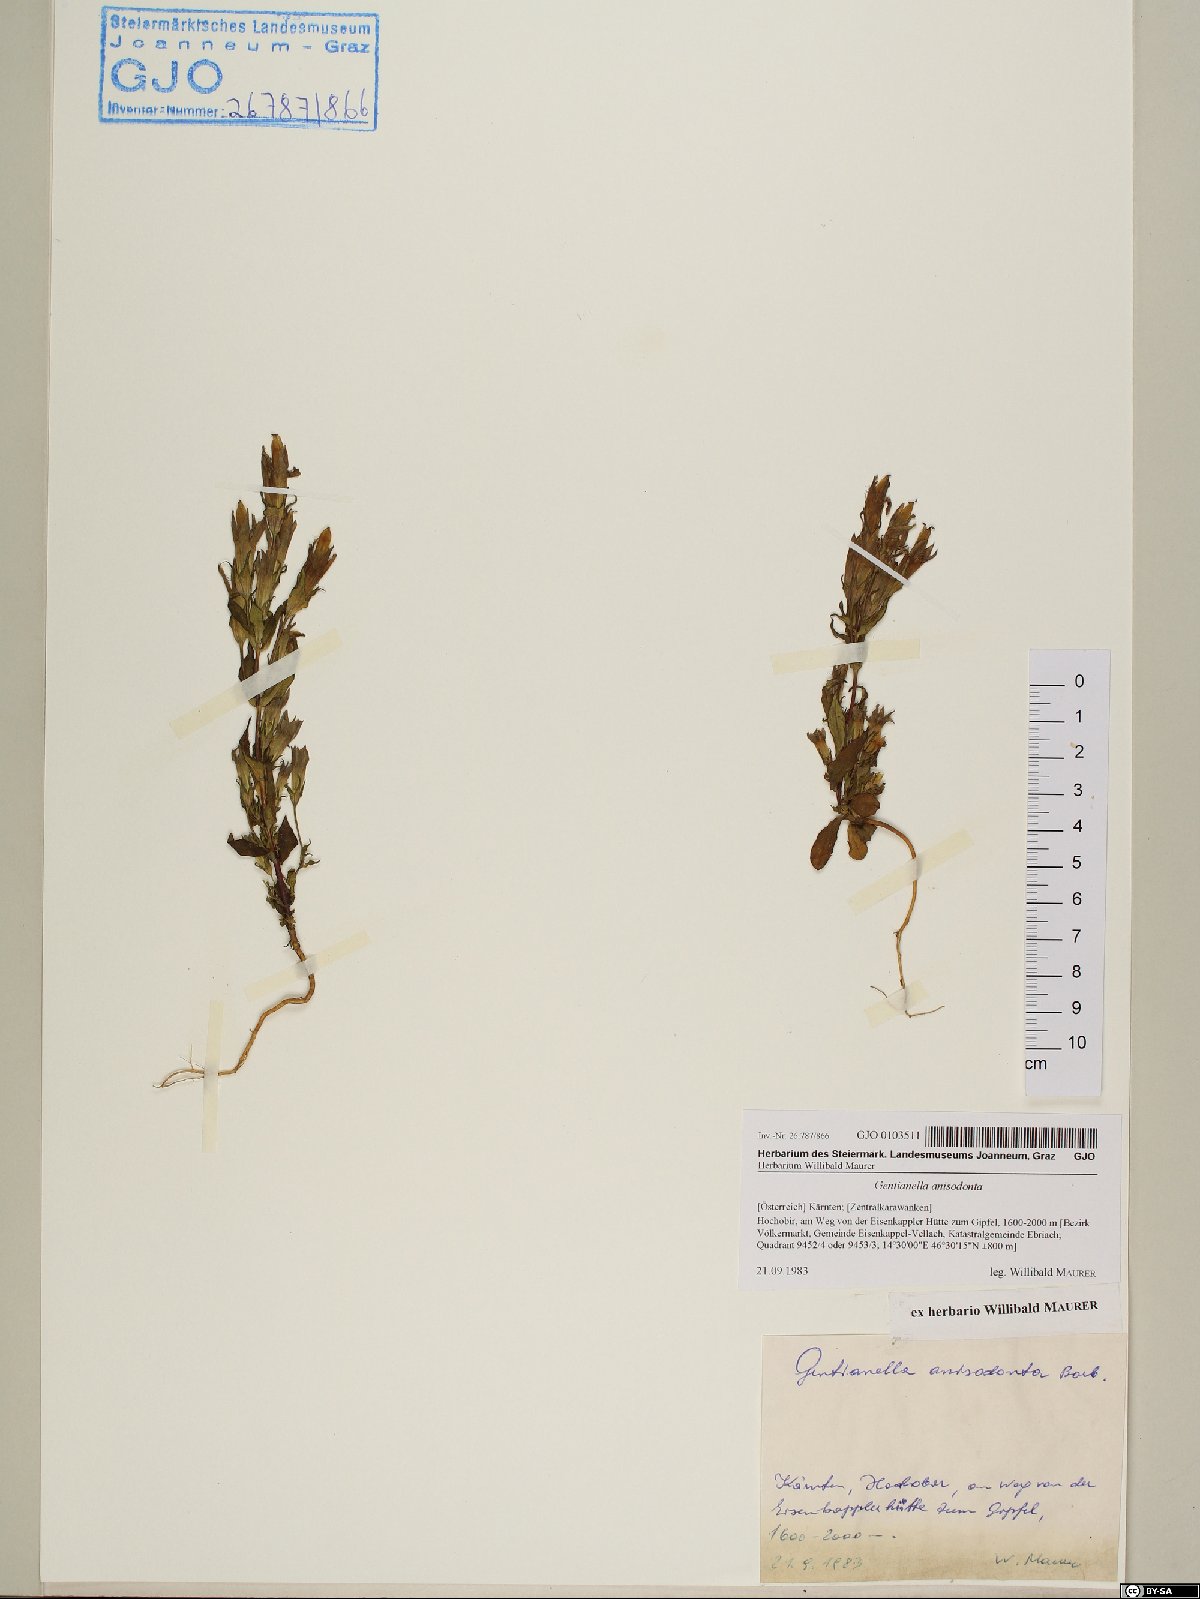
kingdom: Plantae
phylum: Tracheophyta
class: Magnoliopsida
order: Gentianales
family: Gentianaceae
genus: Gentianella
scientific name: Gentianella anisodonta
